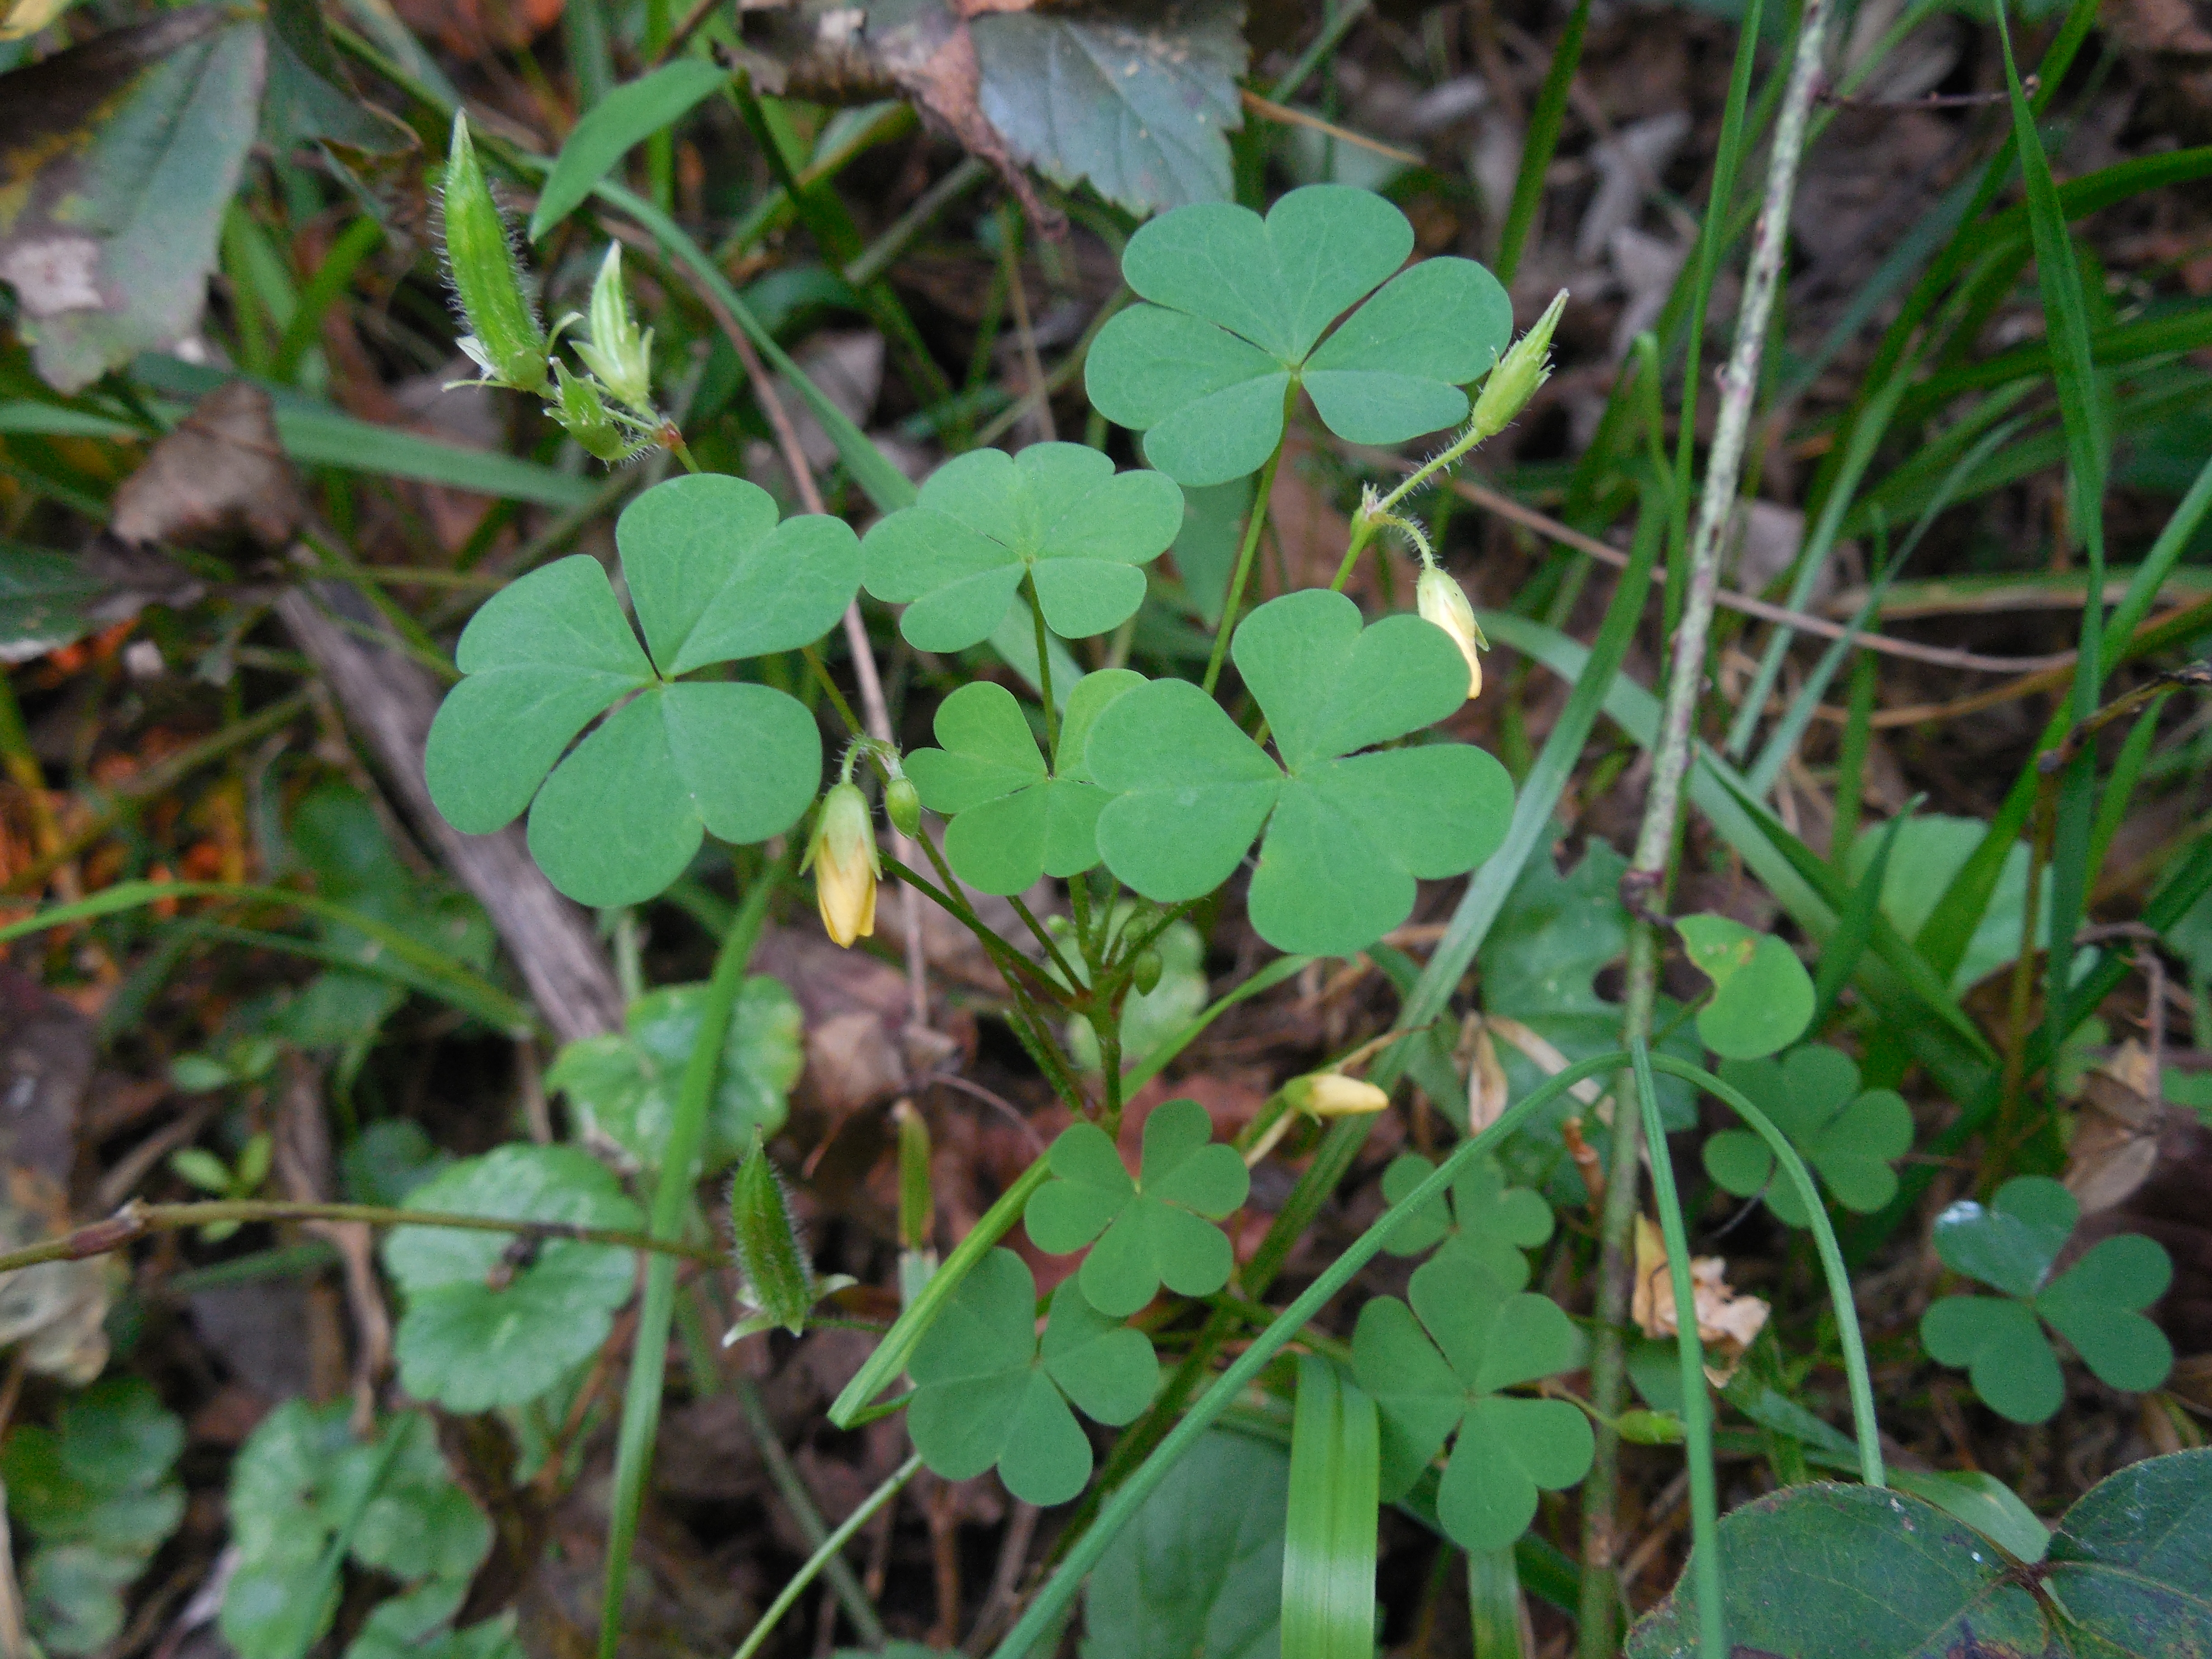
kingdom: Plantae
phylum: Tracheophyta
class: Magnoliopsida
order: Oxalidales
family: Oxalidaceae
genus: Oxalis
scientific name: Oxalis stricta
